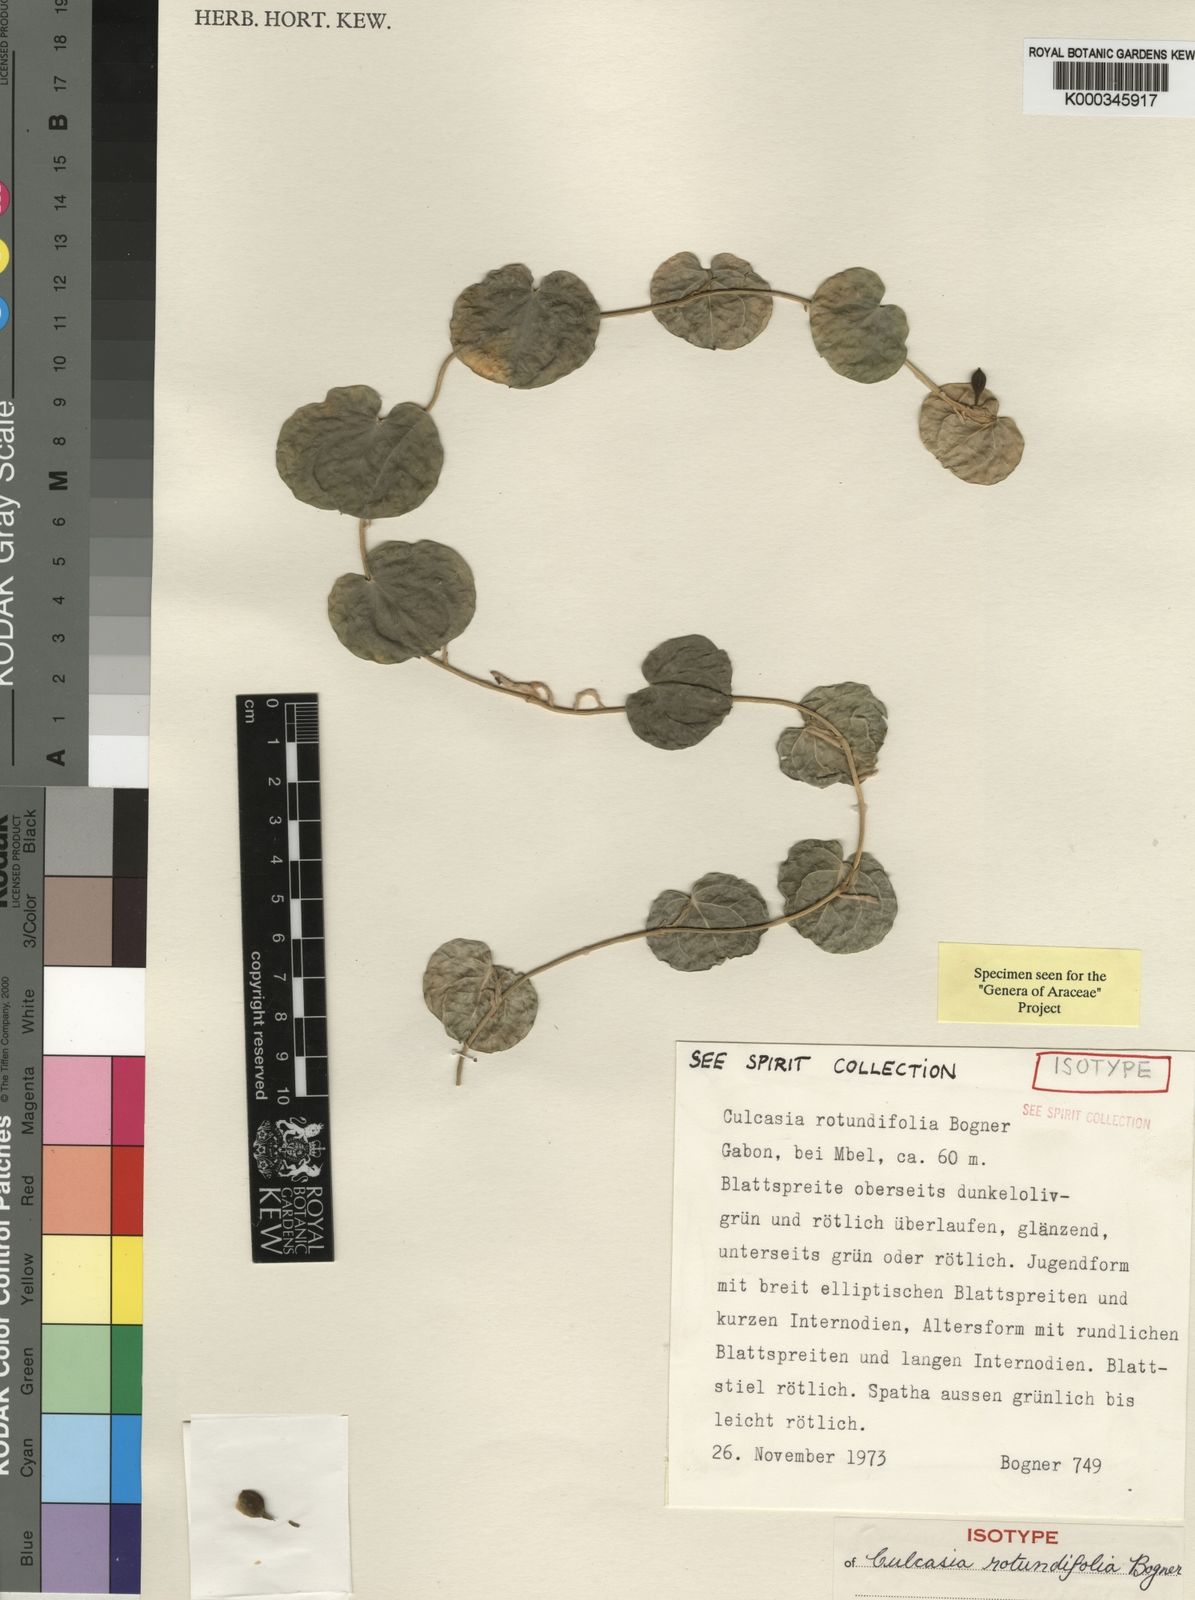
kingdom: Plantae
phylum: Tracheophyta
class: Liliopsida
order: Alismatales
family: Araceae
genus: Culcasia
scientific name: Culcasia rotundifolia
